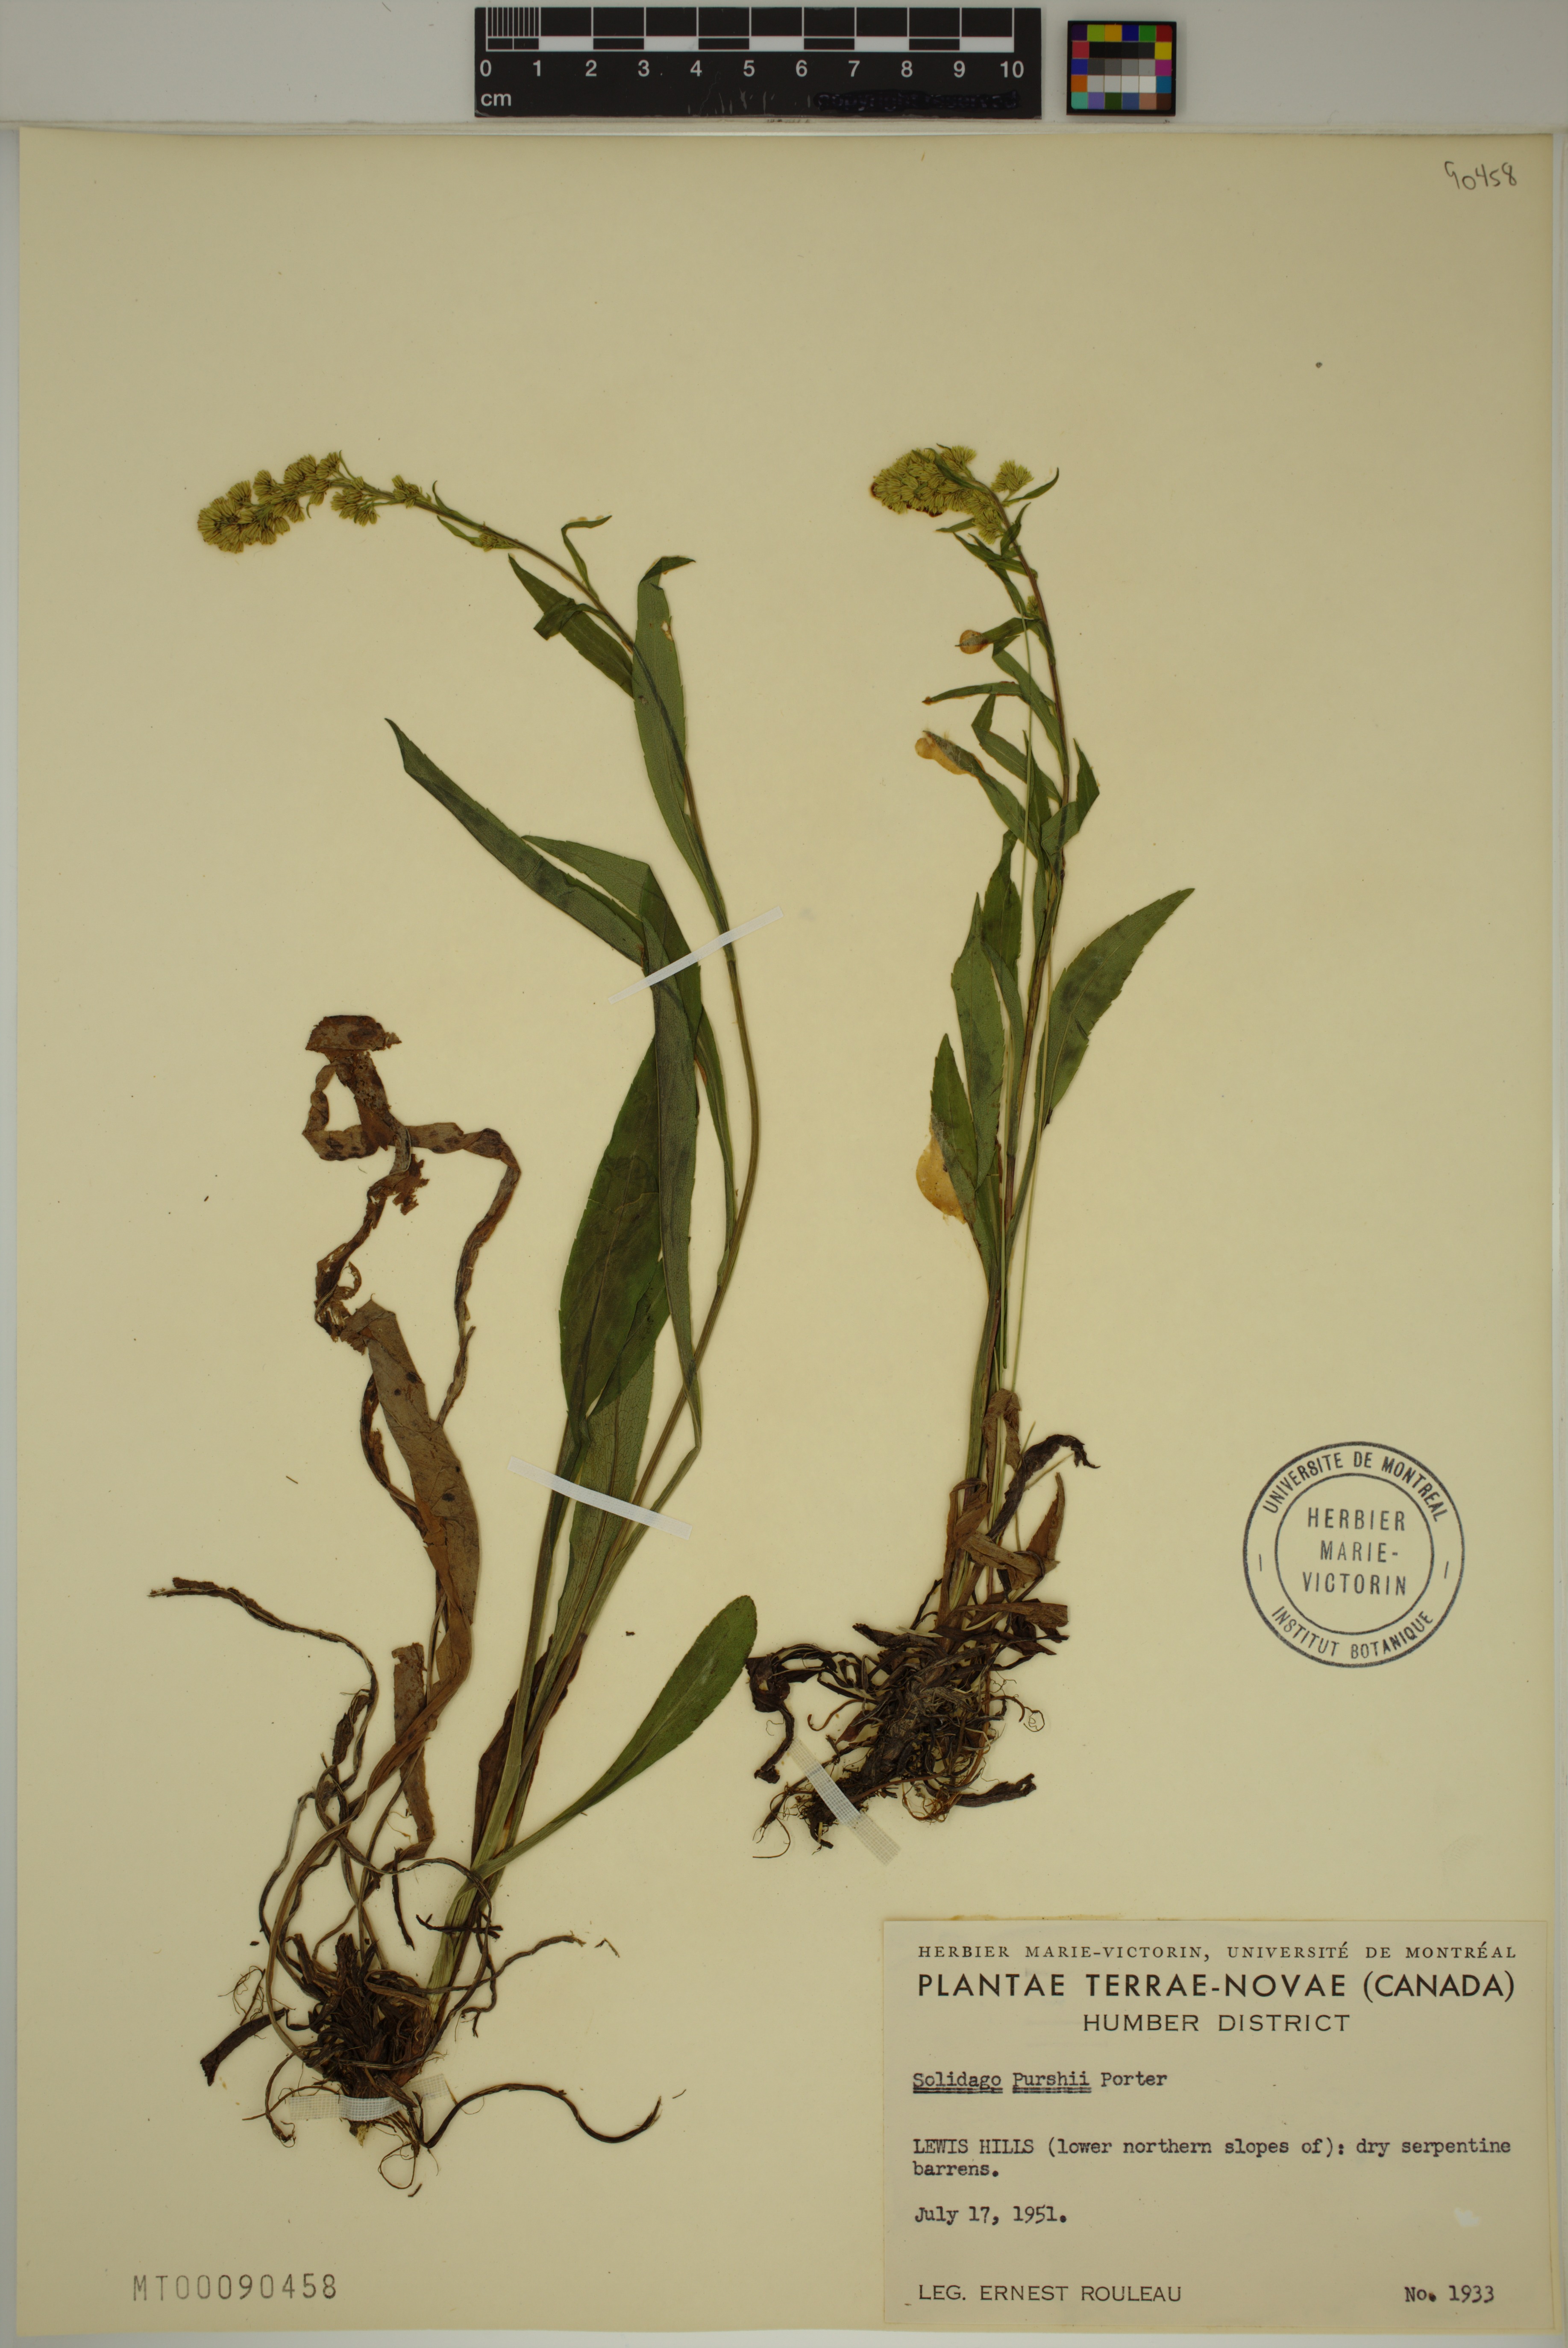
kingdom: Plantae
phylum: Tracheophyta
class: Magnoliopsida
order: Asterales
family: Asteraceae
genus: Solidago
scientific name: Solidago uliginosa
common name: Bog goldenrod
